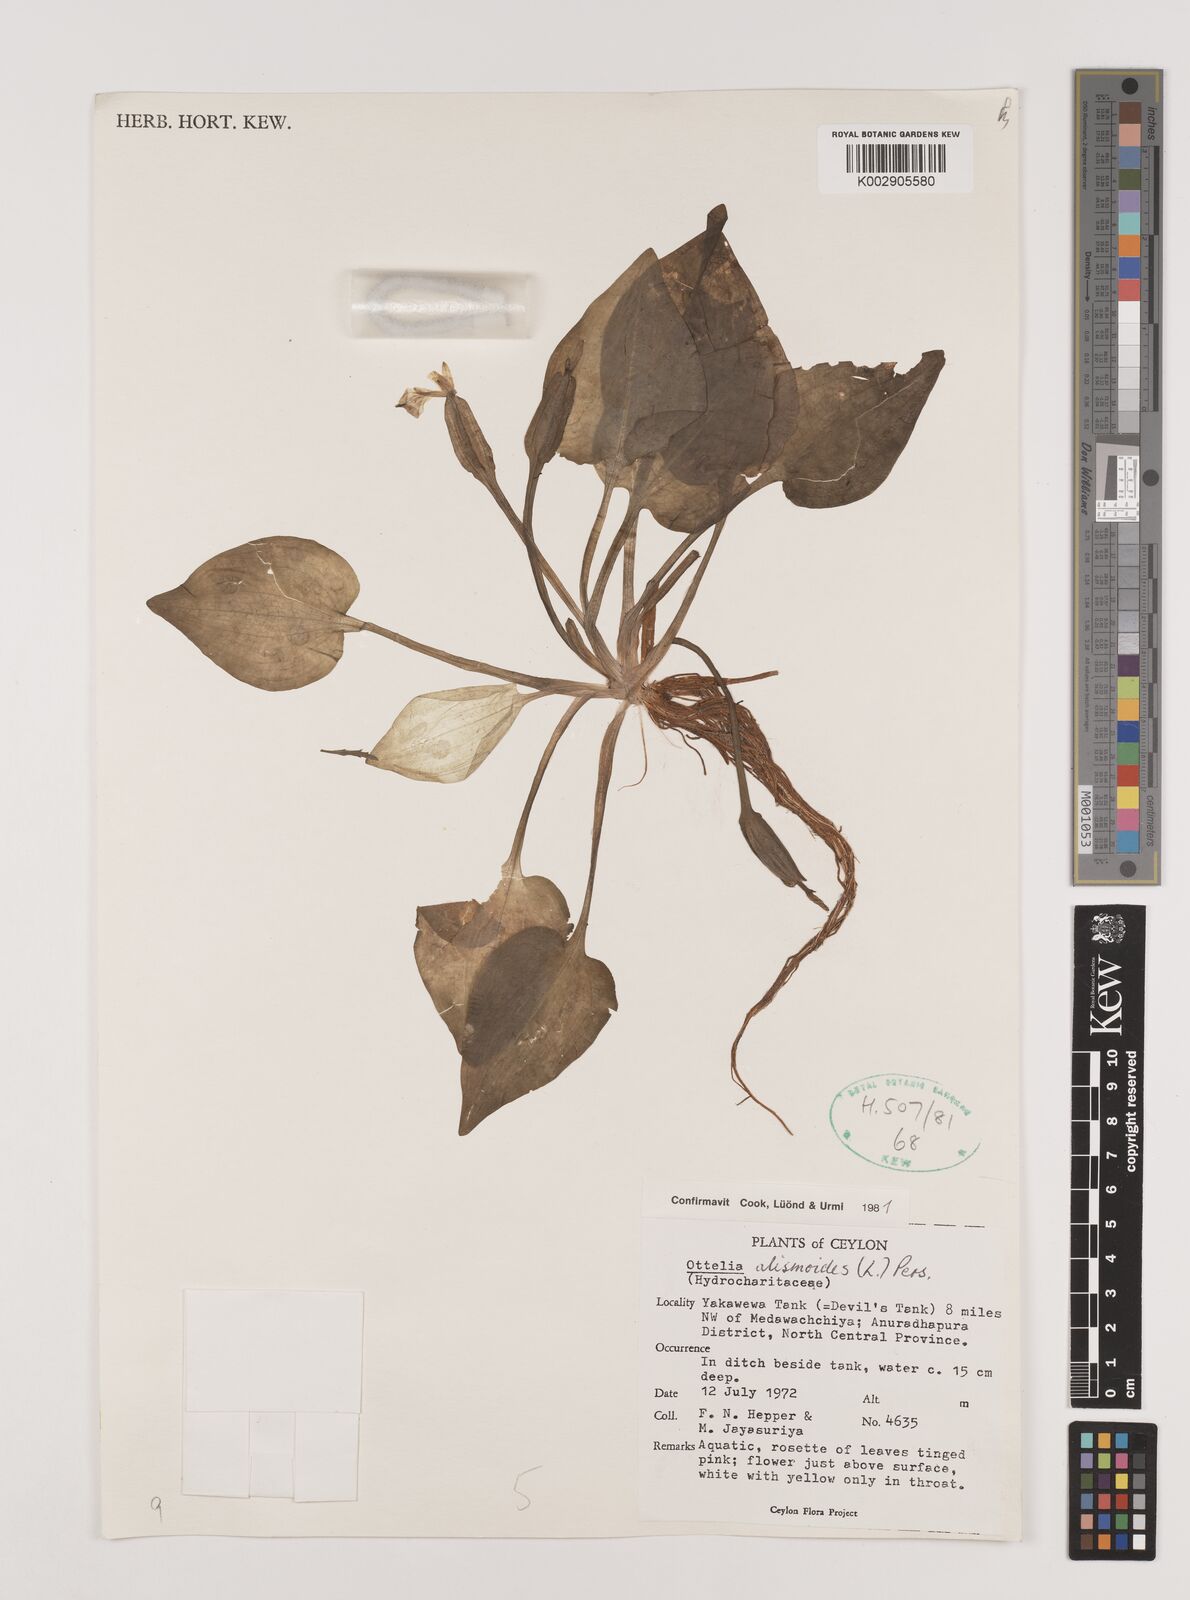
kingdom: Plantae
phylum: Tracheophyta
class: Liliopsida
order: Alismatales
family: Hydrocharitaceae
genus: Ottelia
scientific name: Ottelia alismoides
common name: Duck-lettuce
